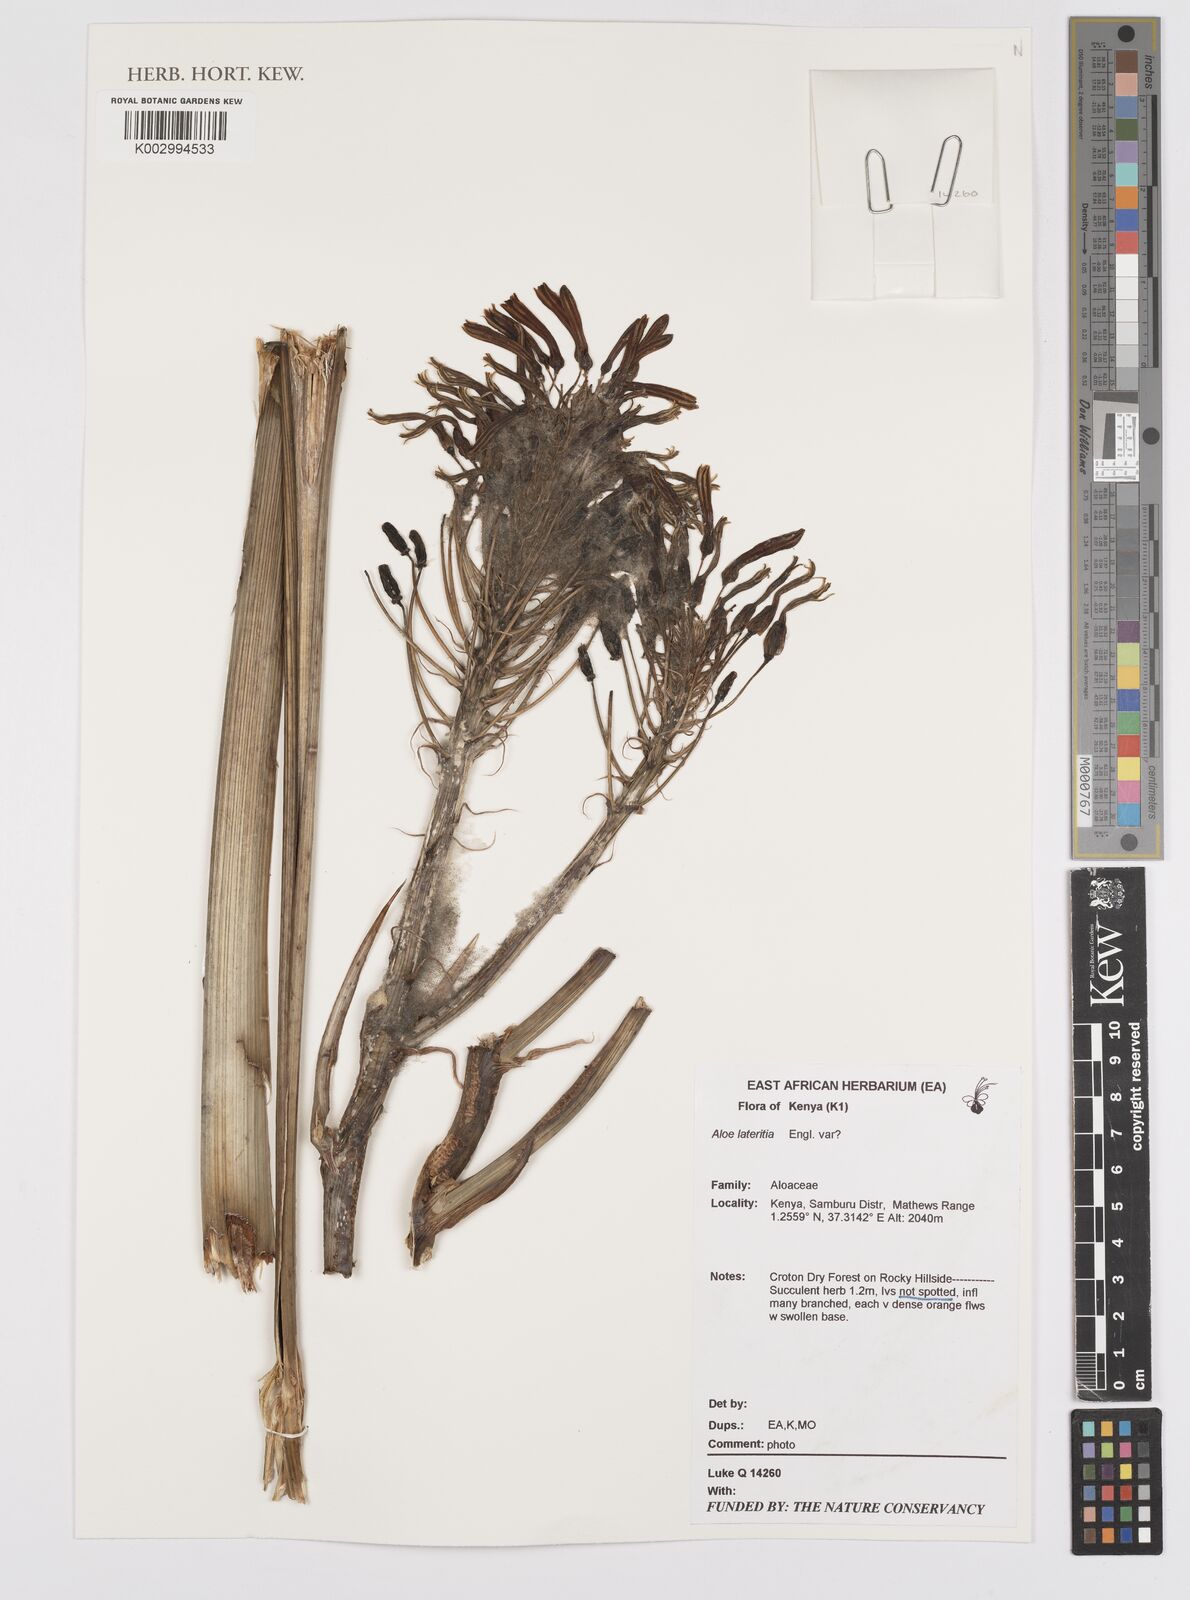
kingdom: Plantae
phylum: Tracheophyta
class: Liliopsida
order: Asparagales
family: Asphodelaceae
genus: Aloe
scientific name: Aloe lateritia
